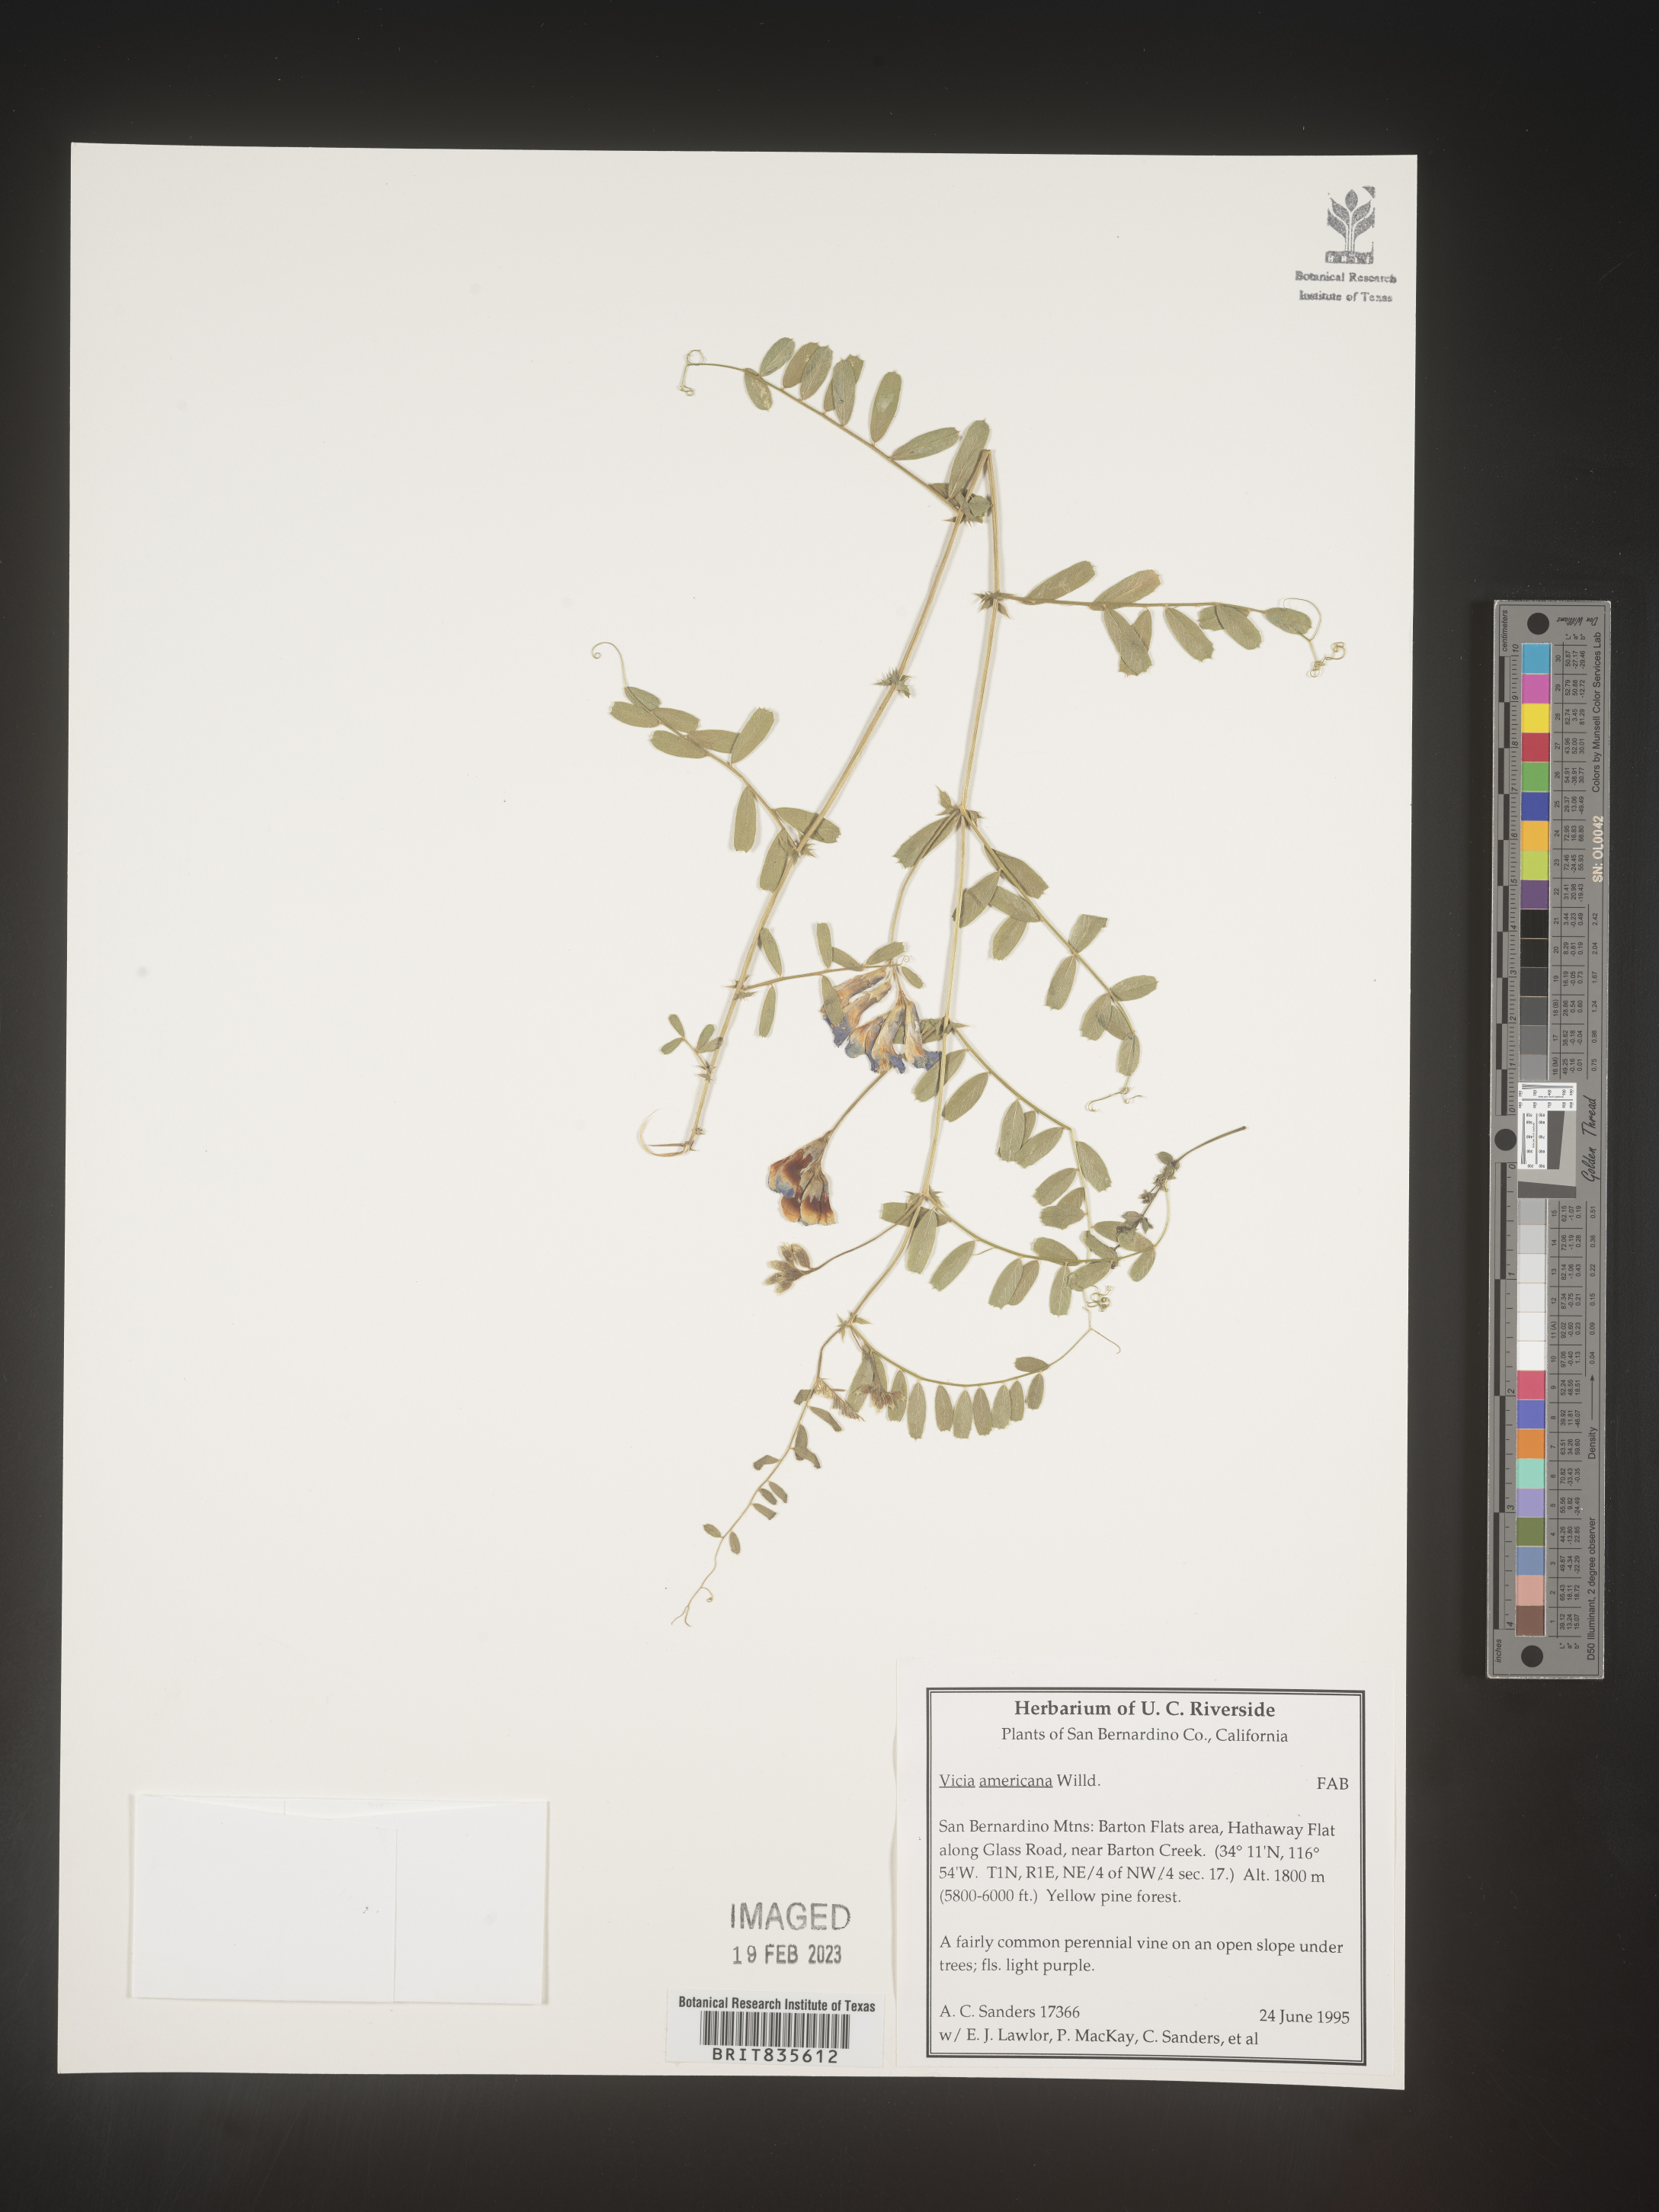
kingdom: Plantae
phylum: Tracheophyta
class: Magnoliopsida
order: Fabales
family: Fabaceae
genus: Vicia
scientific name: Vicia americana
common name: American vetch
